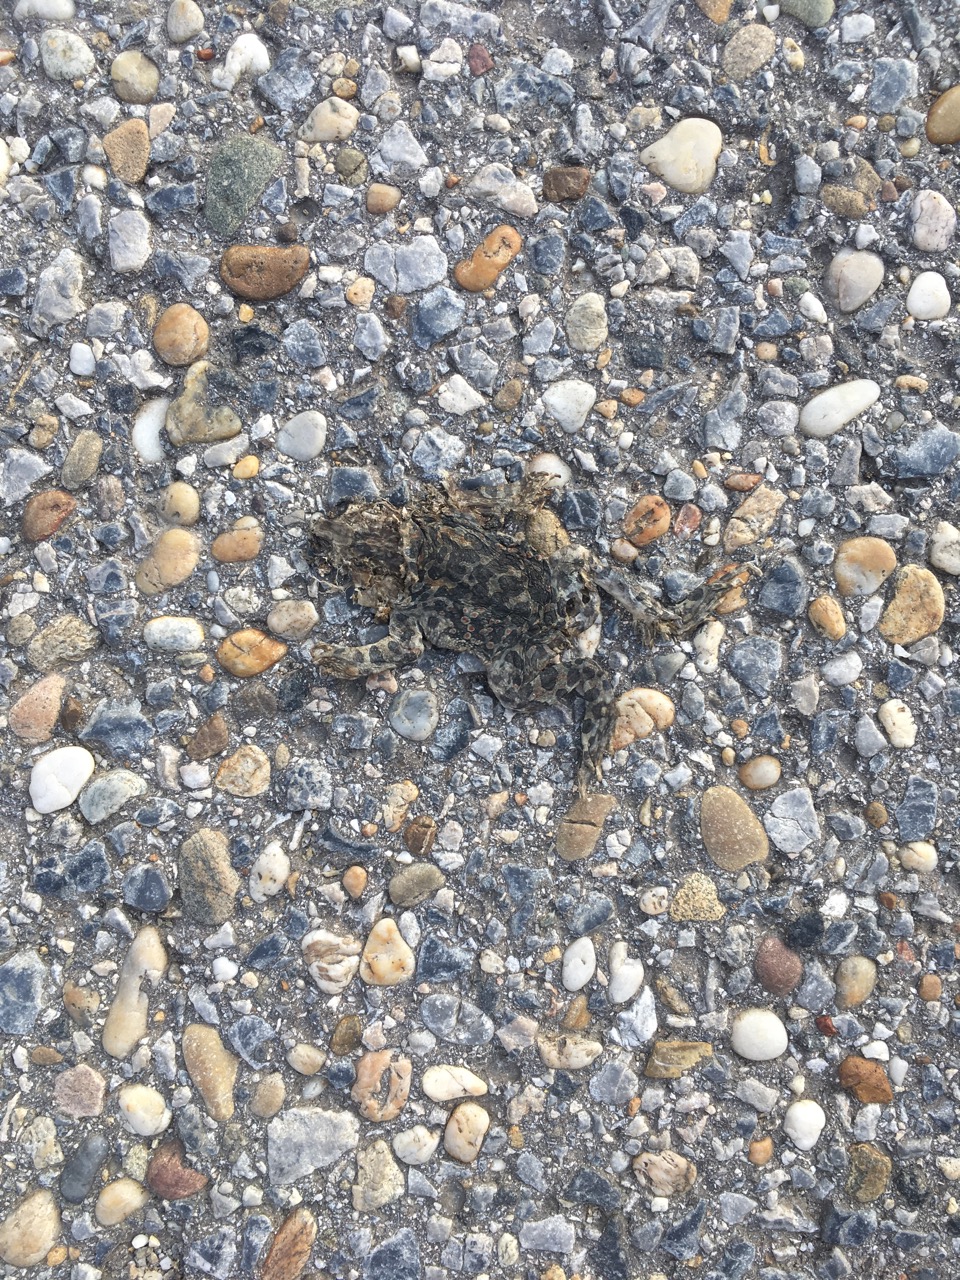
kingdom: Animalia
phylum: Chordata
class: Amphibia
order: Anura
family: Bufonidae
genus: Bufotes
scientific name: Bufotes viridis
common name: European green toad
